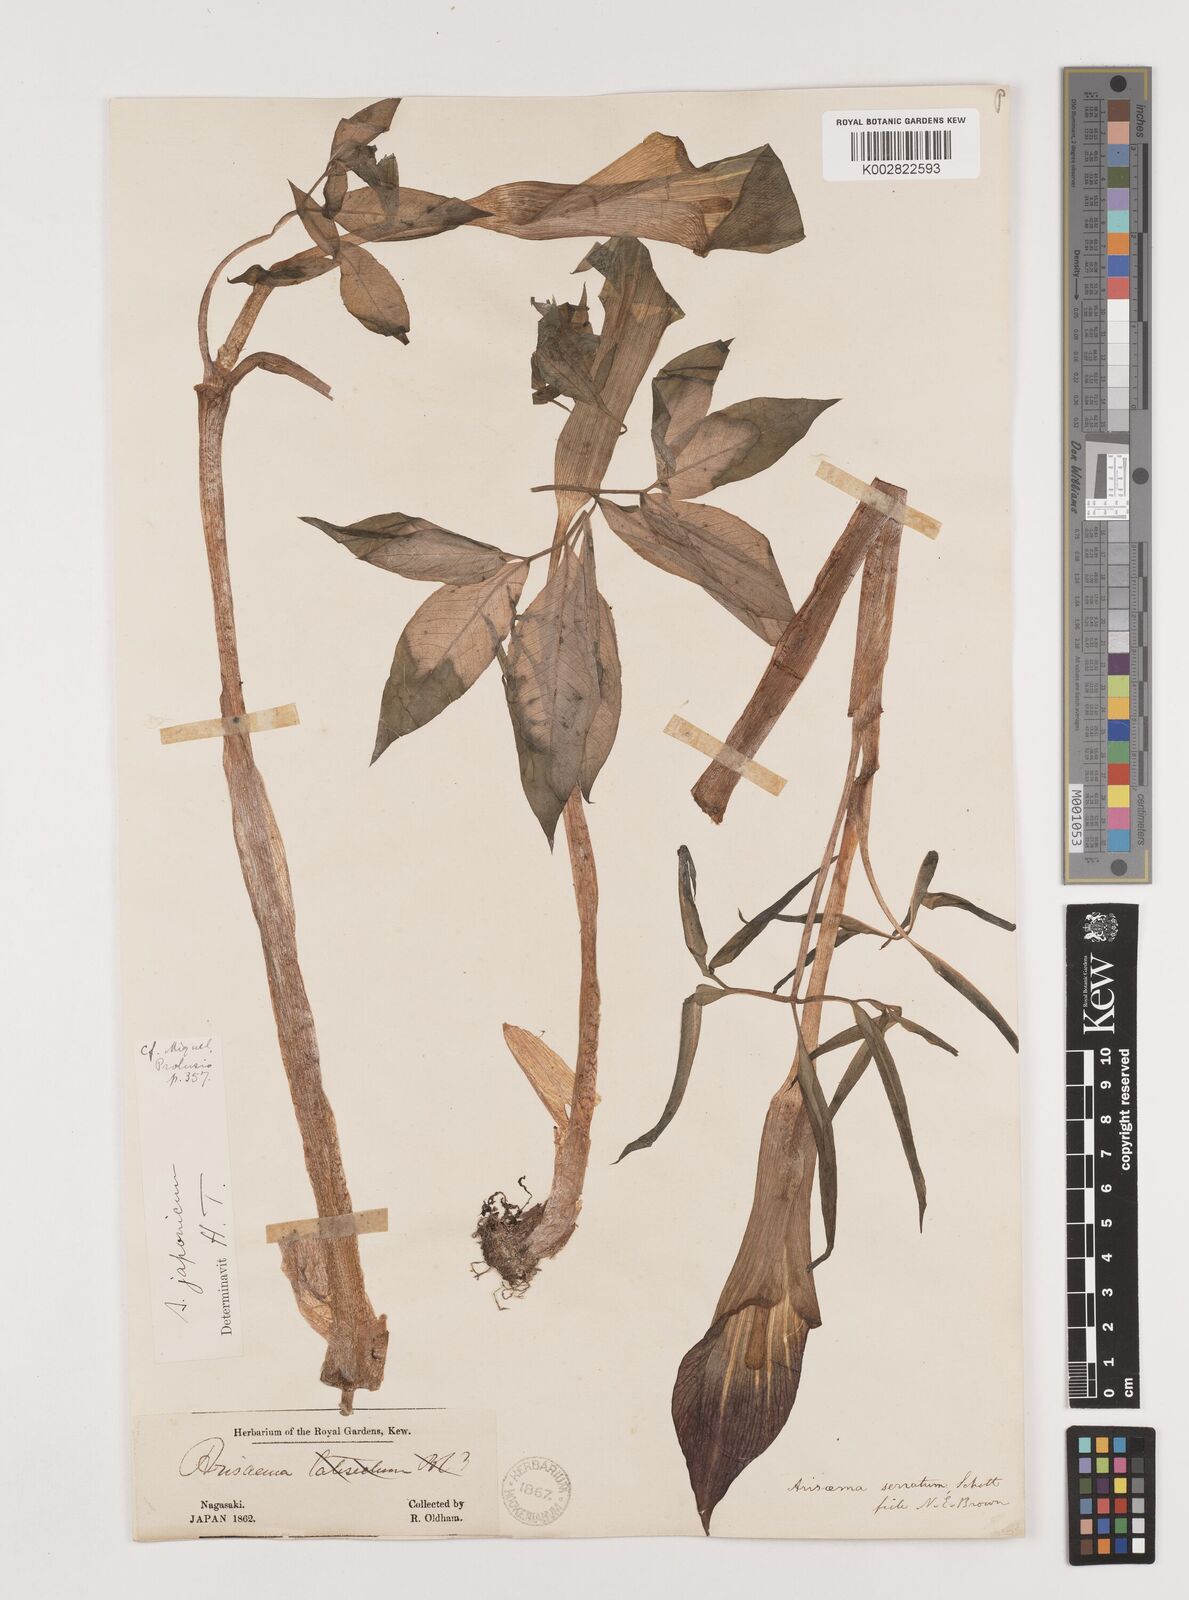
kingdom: Plantae
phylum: Tracheophyta
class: Liliopsida
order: Alismatales
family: Araceae
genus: Arisaema
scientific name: Arisaema serratum
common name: Japanese arisaema
